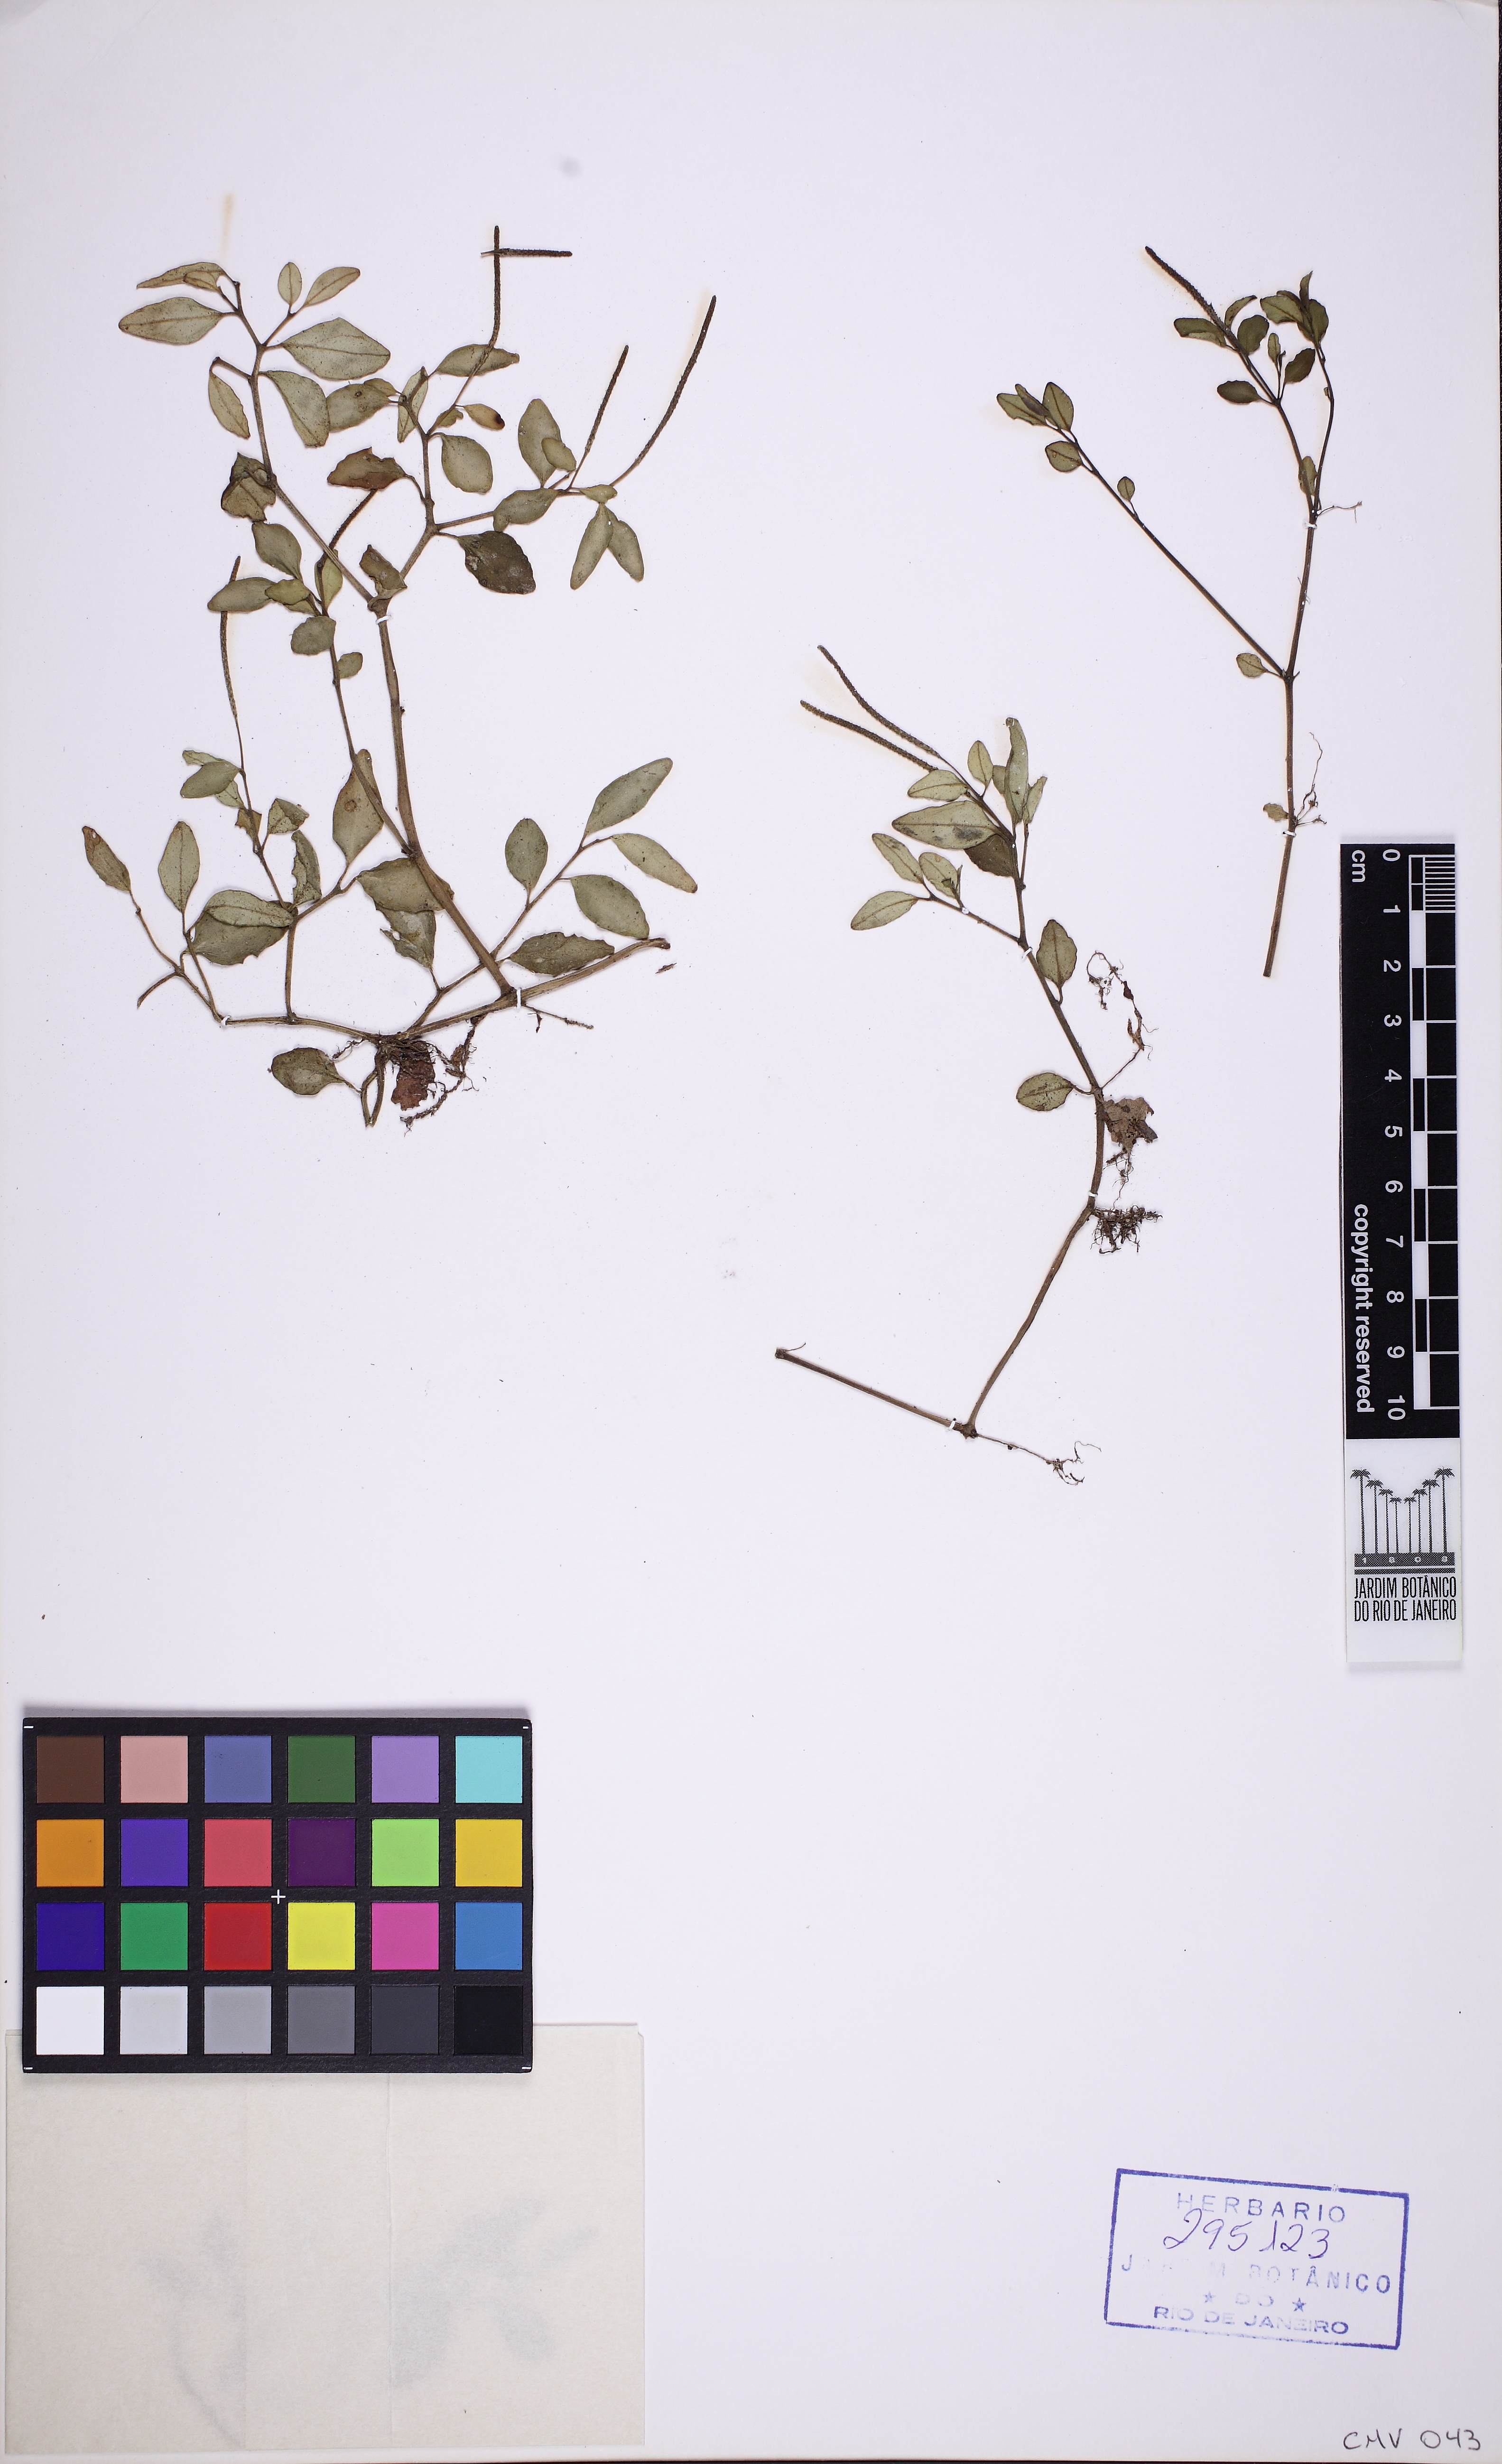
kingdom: Plantae
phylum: Tracheophyta
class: Magnoliopsida
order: Piperales
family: Piperaceae
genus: Peperomia
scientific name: Peperomia corcovadensis
